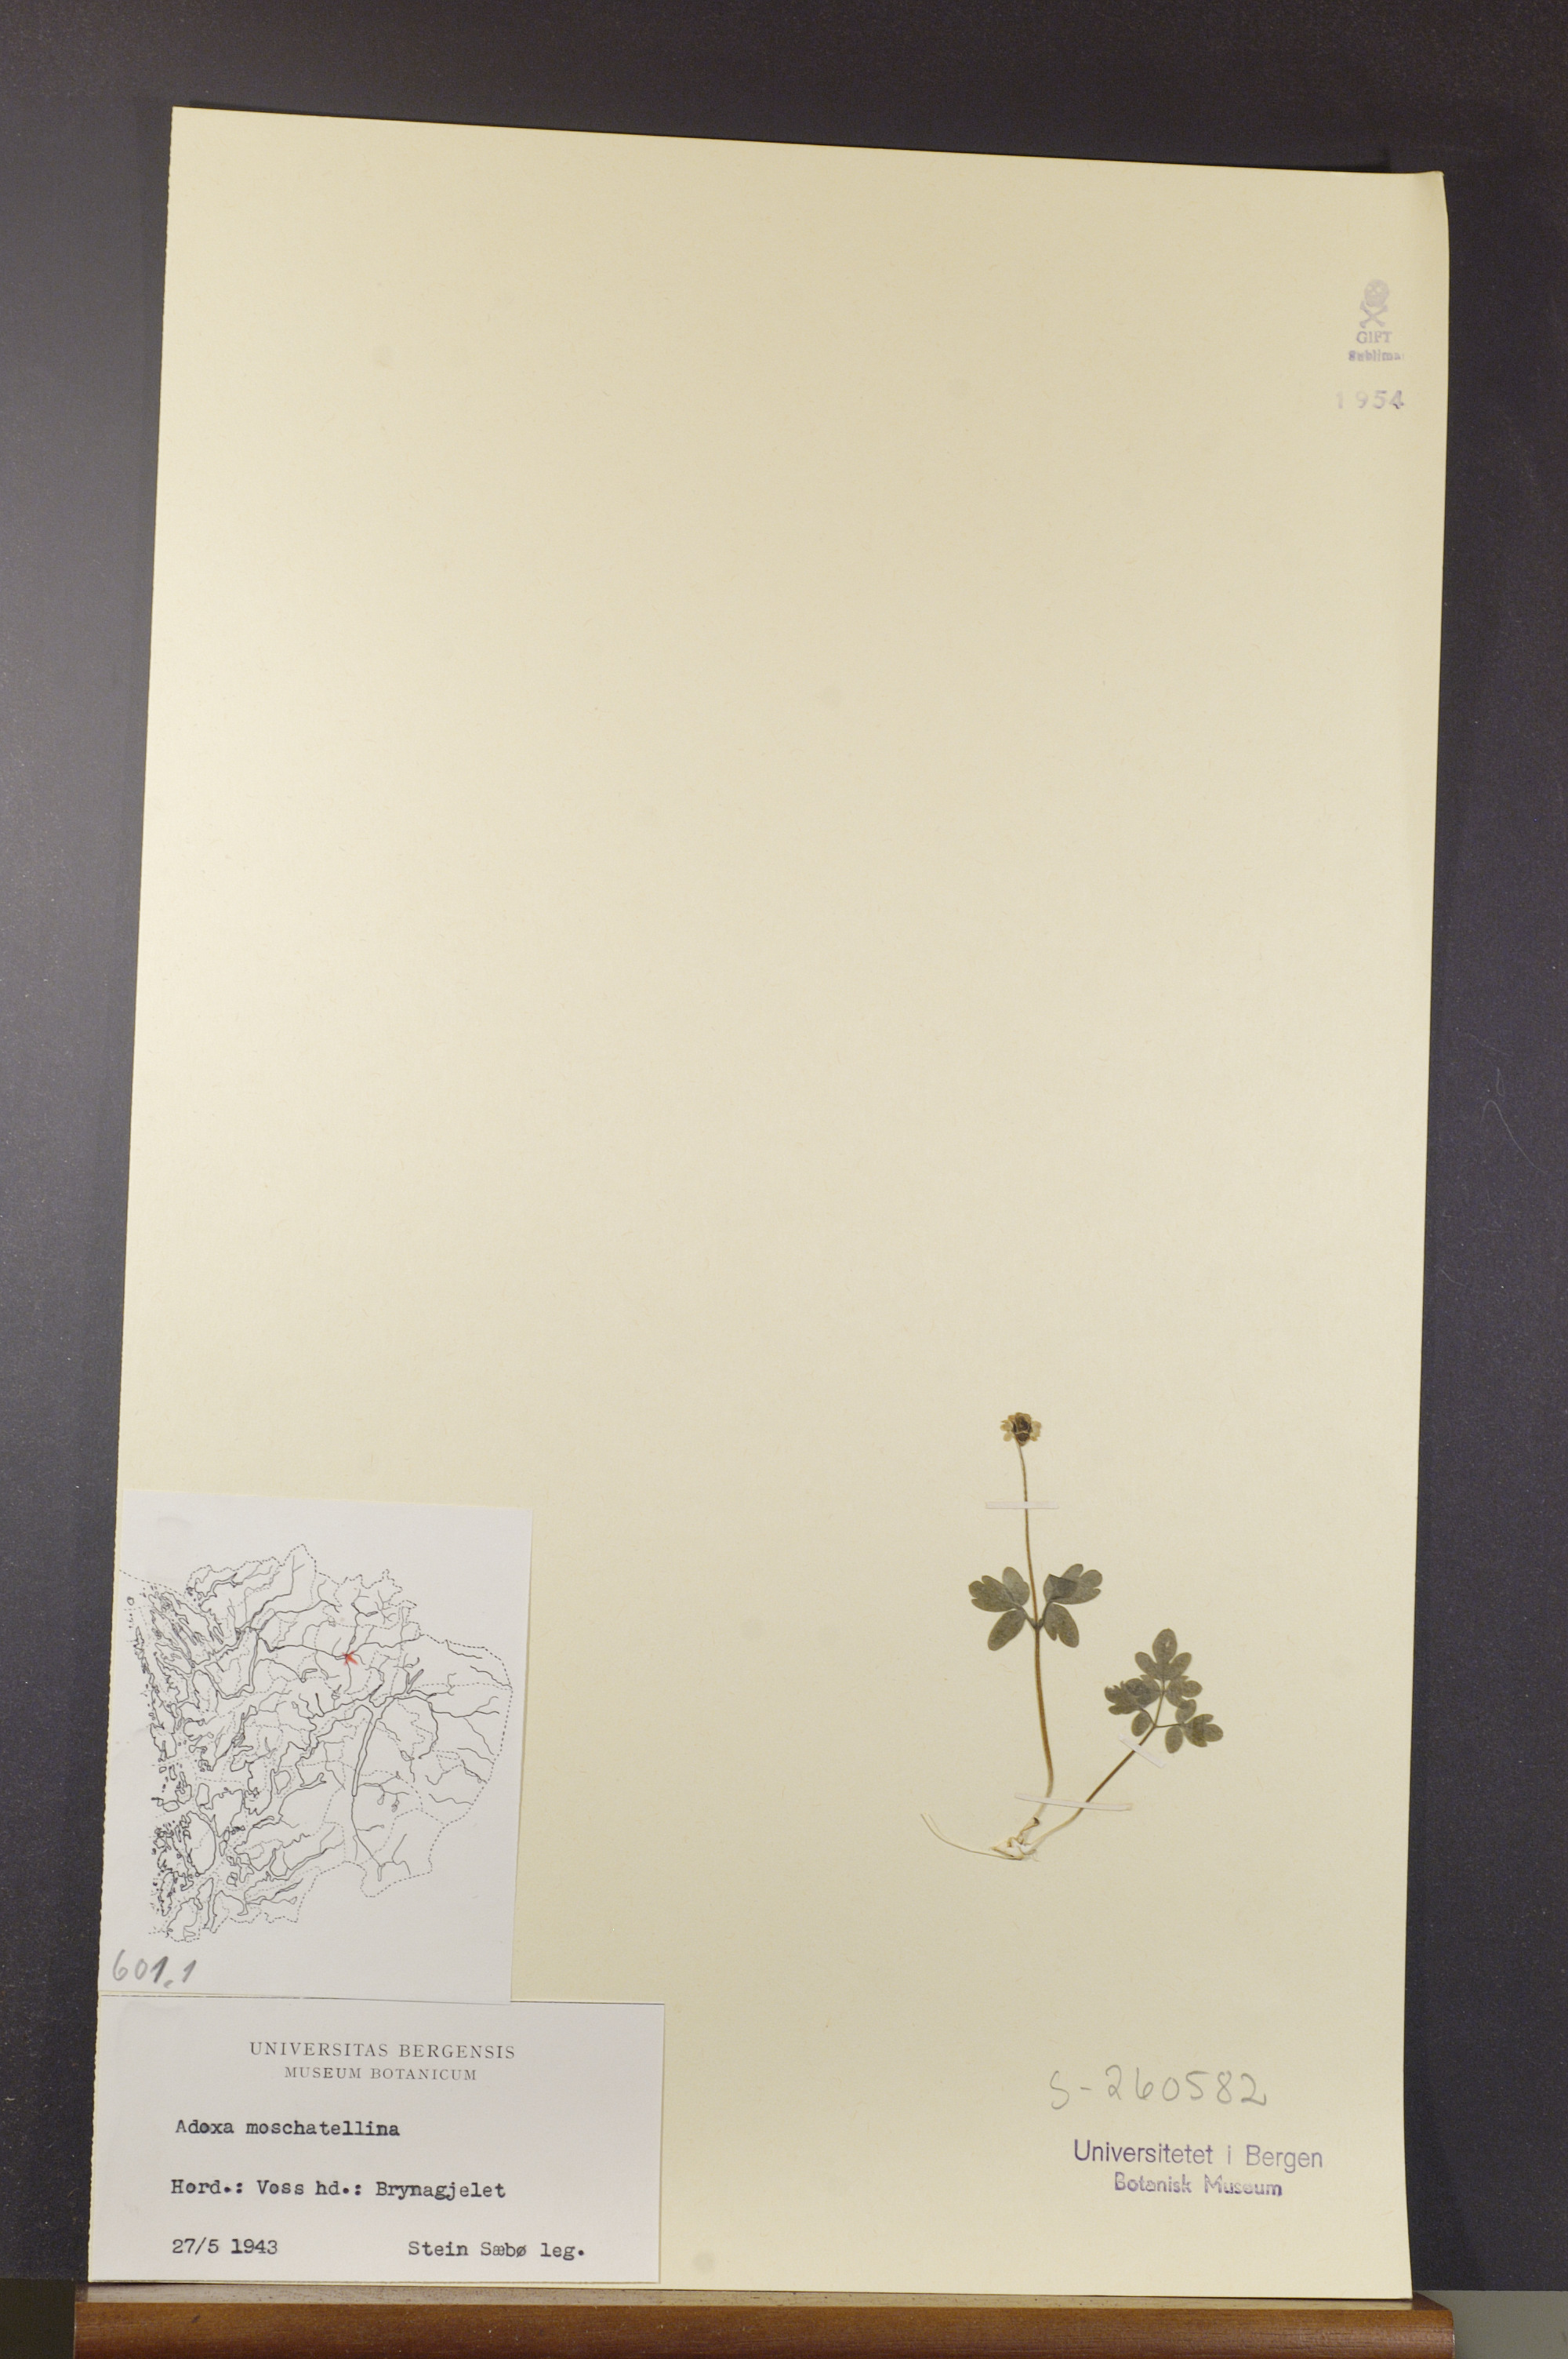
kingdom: Plantae
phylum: Tracheophyta
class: Magnoliopsida
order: Dipsacales
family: Viburnaceae
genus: Adoxa
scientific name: Adoxa moschatellina
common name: Moschatel
